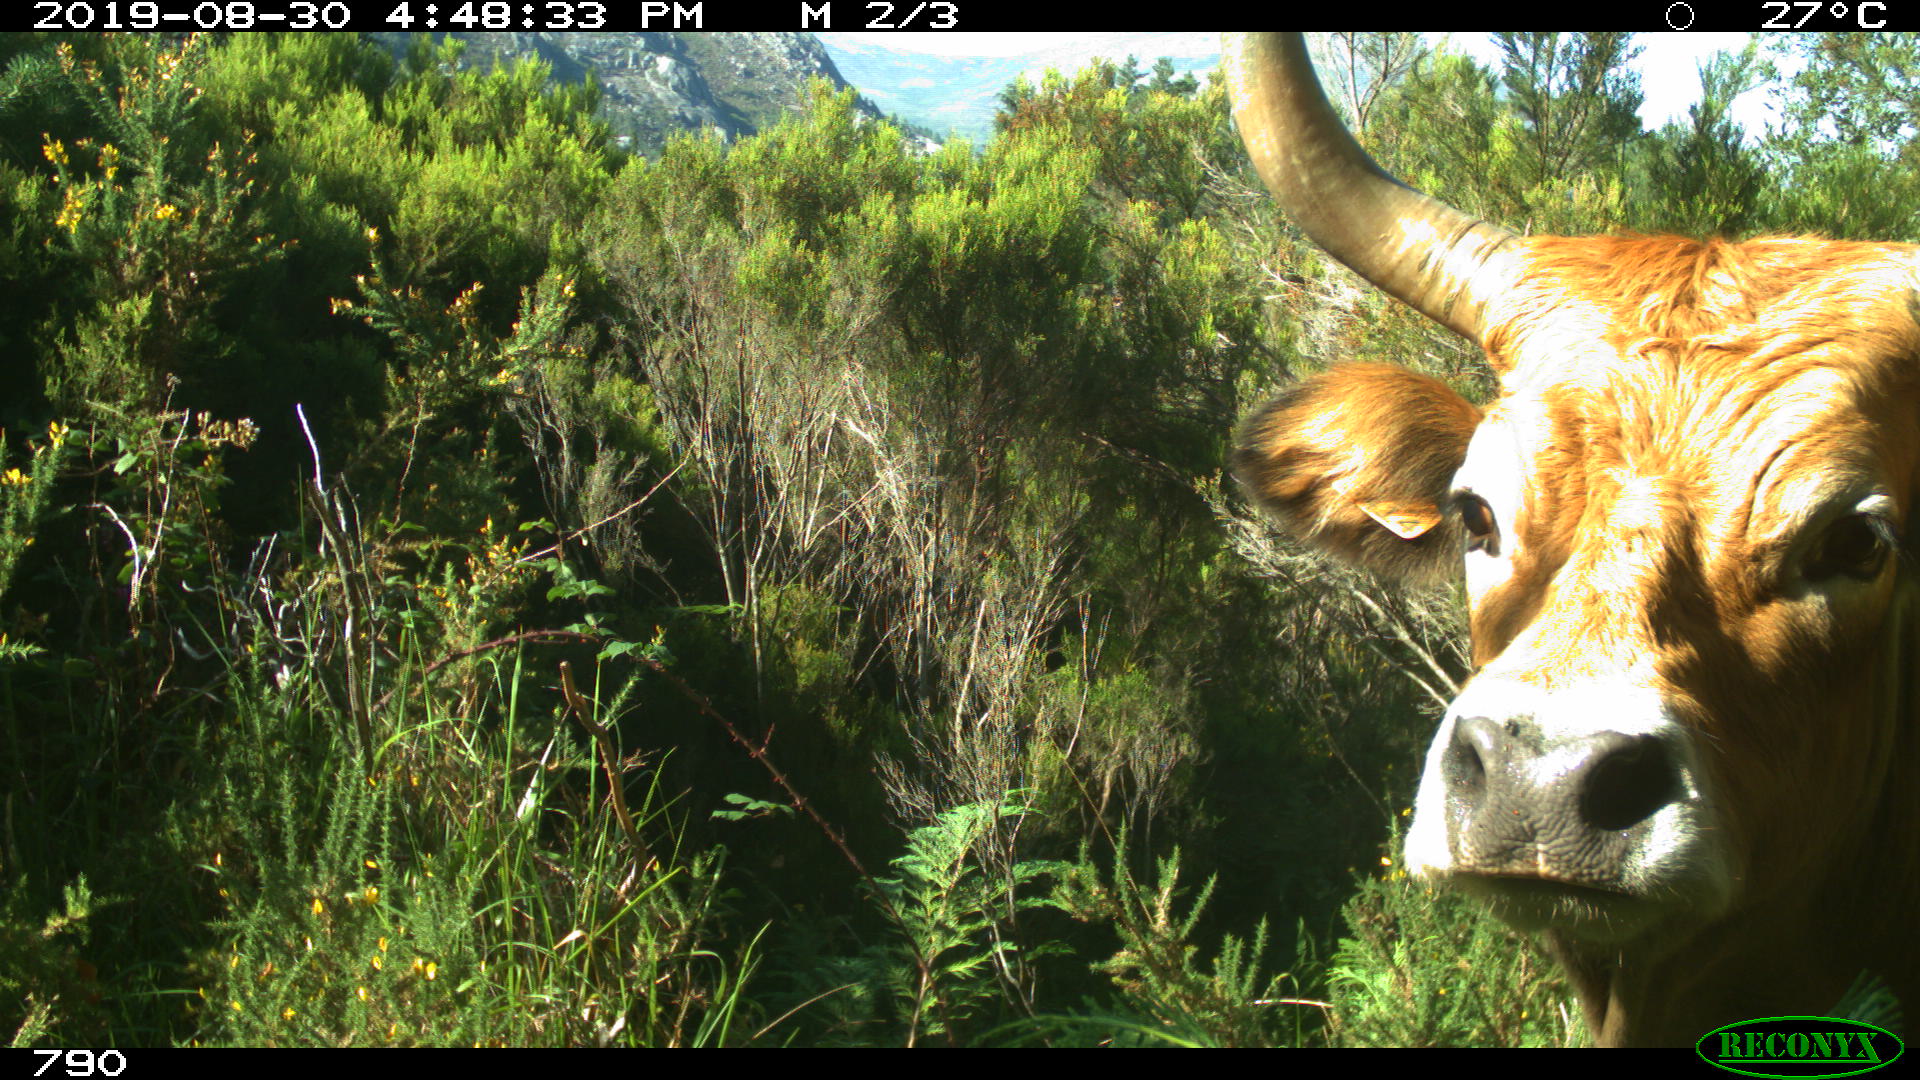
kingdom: Animalia
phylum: Chordata
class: Mammalia
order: Artiodactyla
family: Bovidae
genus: Bos
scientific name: Bos taurus
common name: Domesticated cattle
